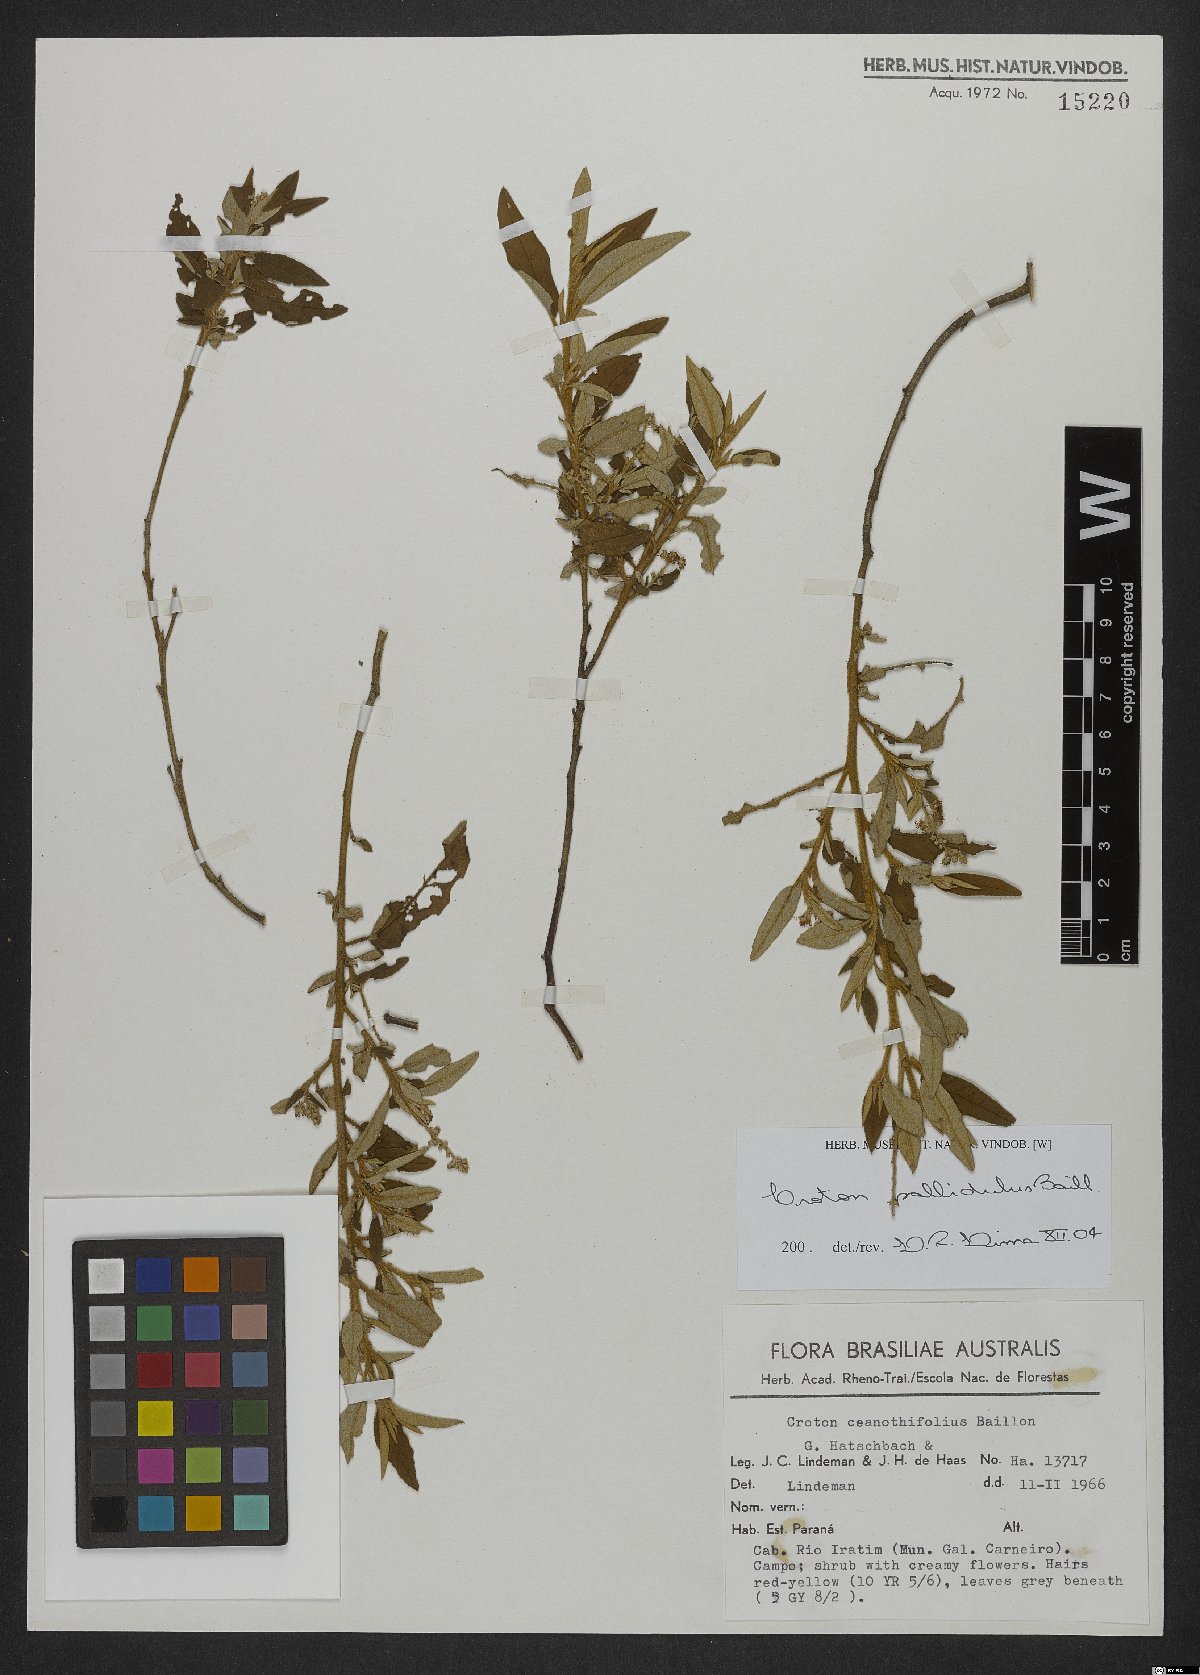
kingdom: Plantae
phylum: Tracheophyta
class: Magnoliopsida
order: Malpighiales
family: Euphorbiaceae
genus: Croton
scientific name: Croton ceanothifolius
